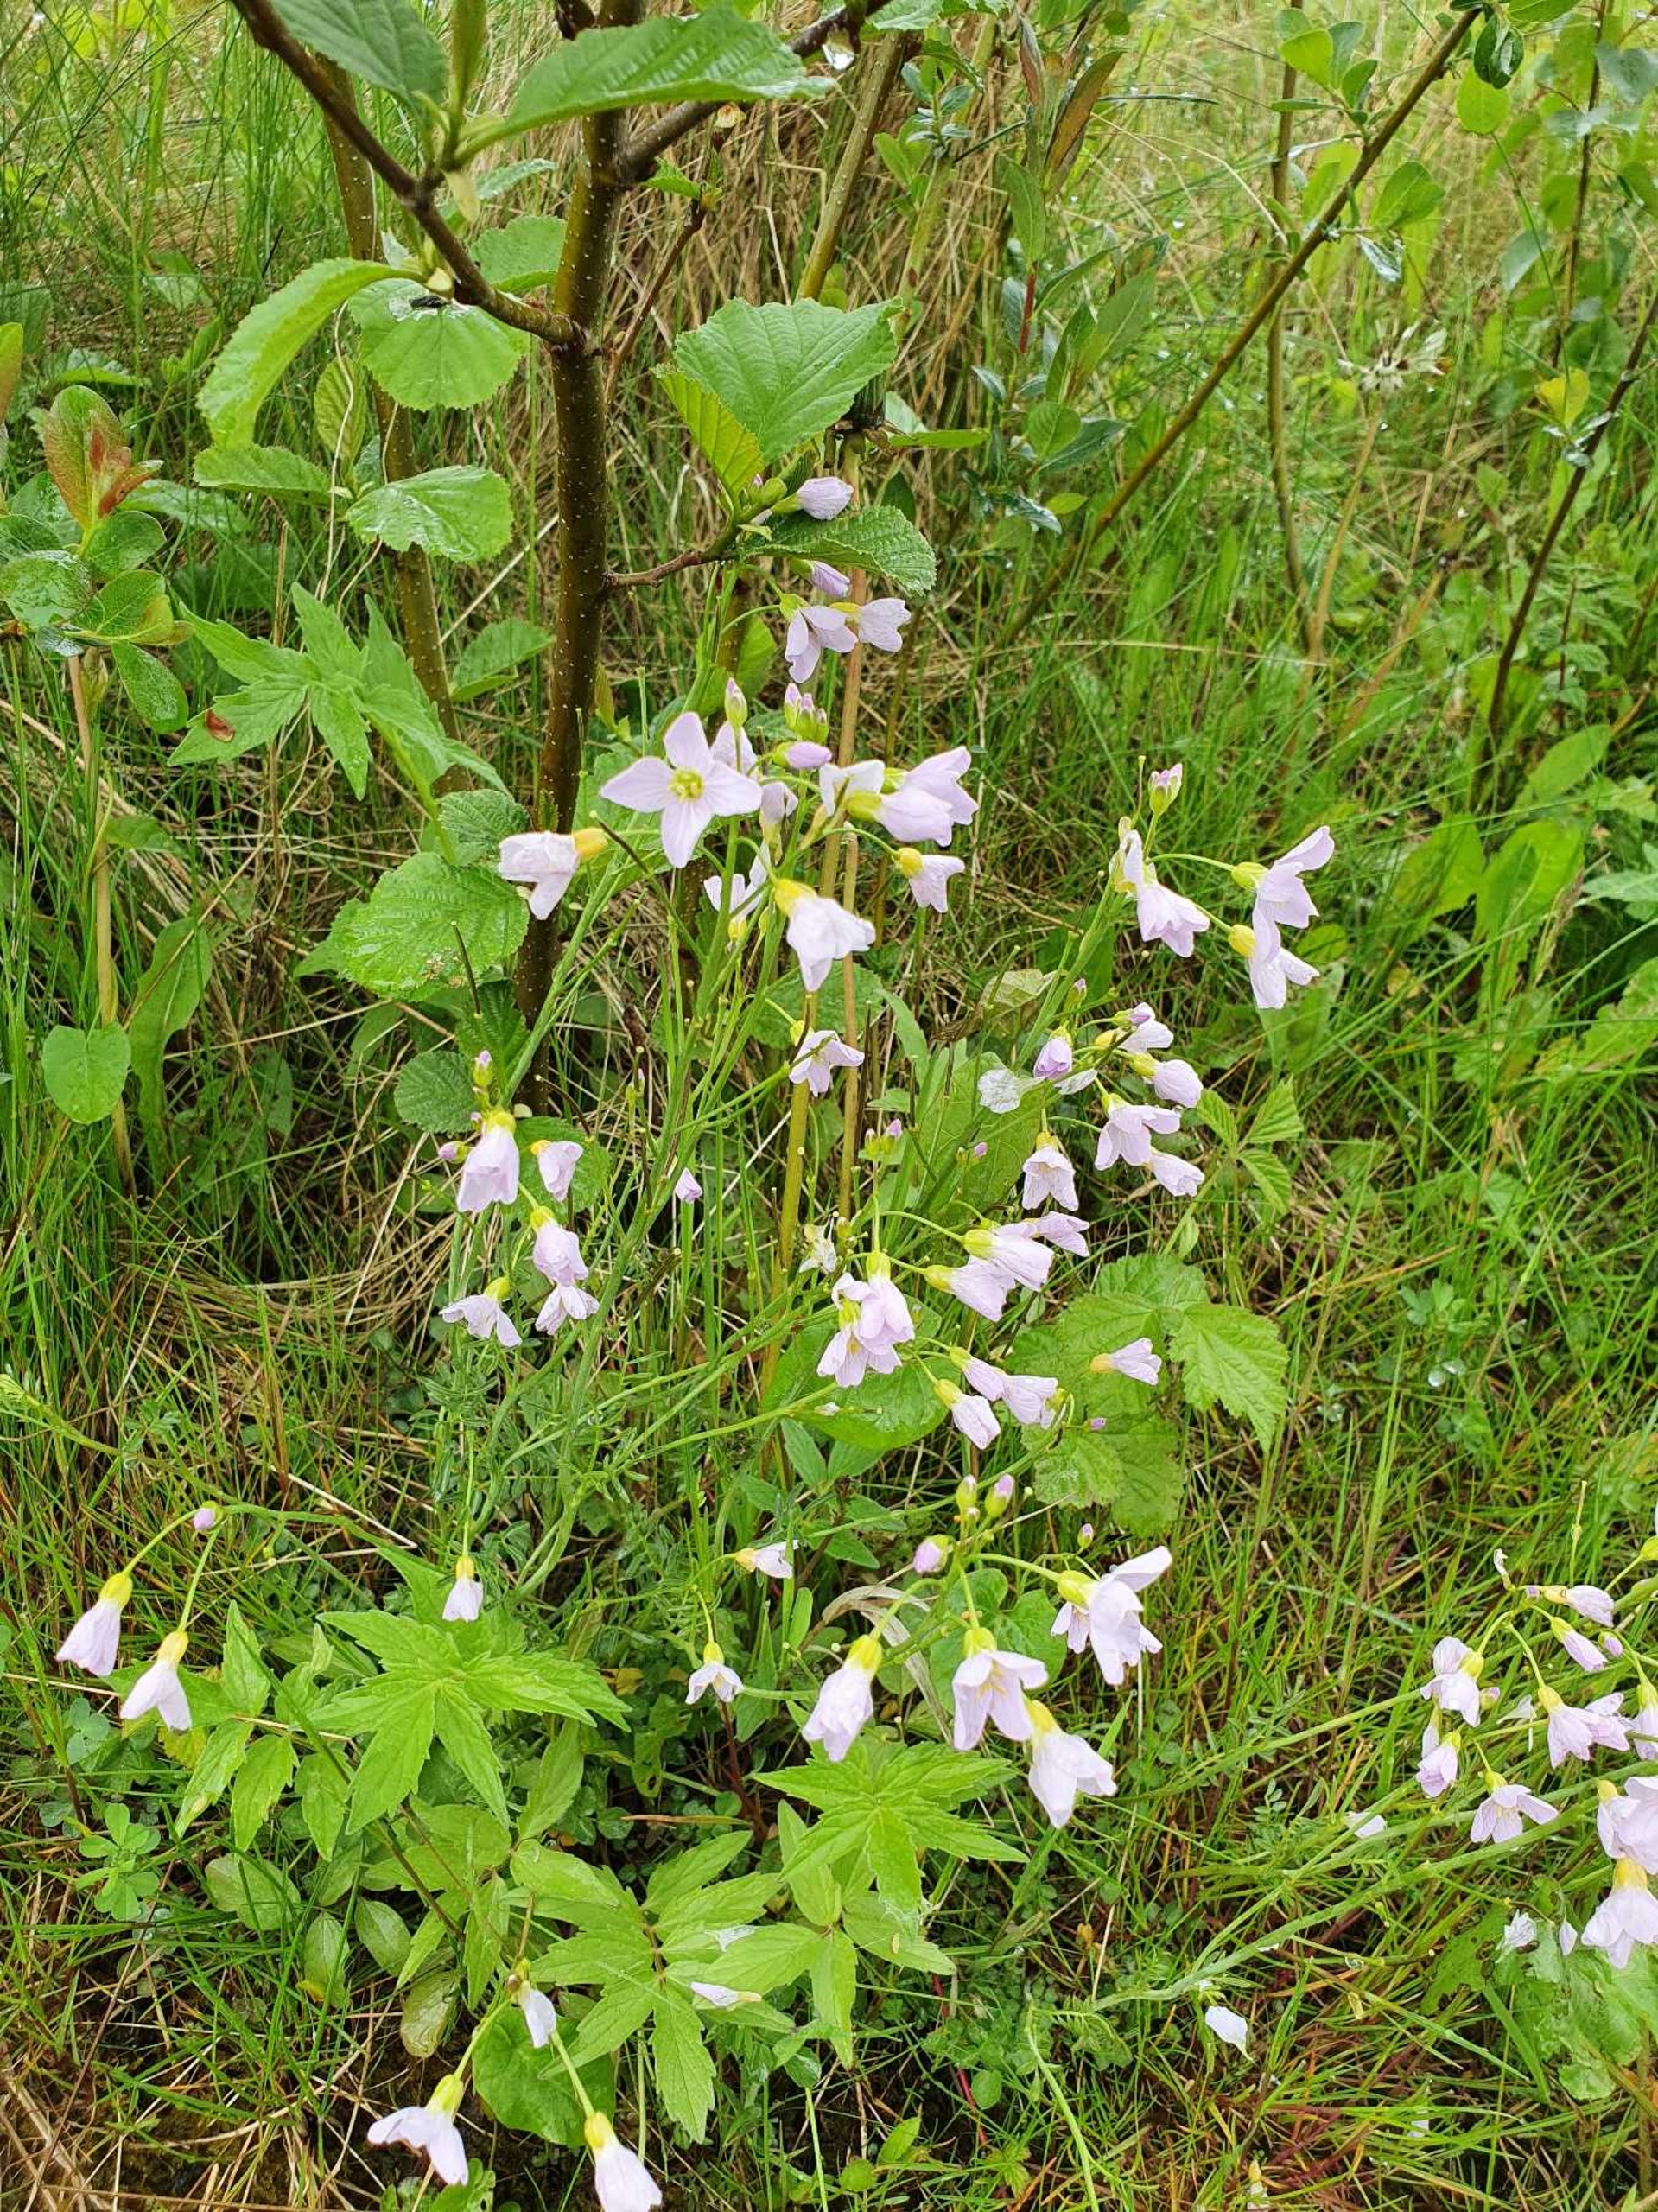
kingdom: Plantae
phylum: Tracheophyta
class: Magnoliopsida
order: Brassicales
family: Brassicaceae
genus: Cardamine
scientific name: Cardamine pratensis
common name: Engkarse
